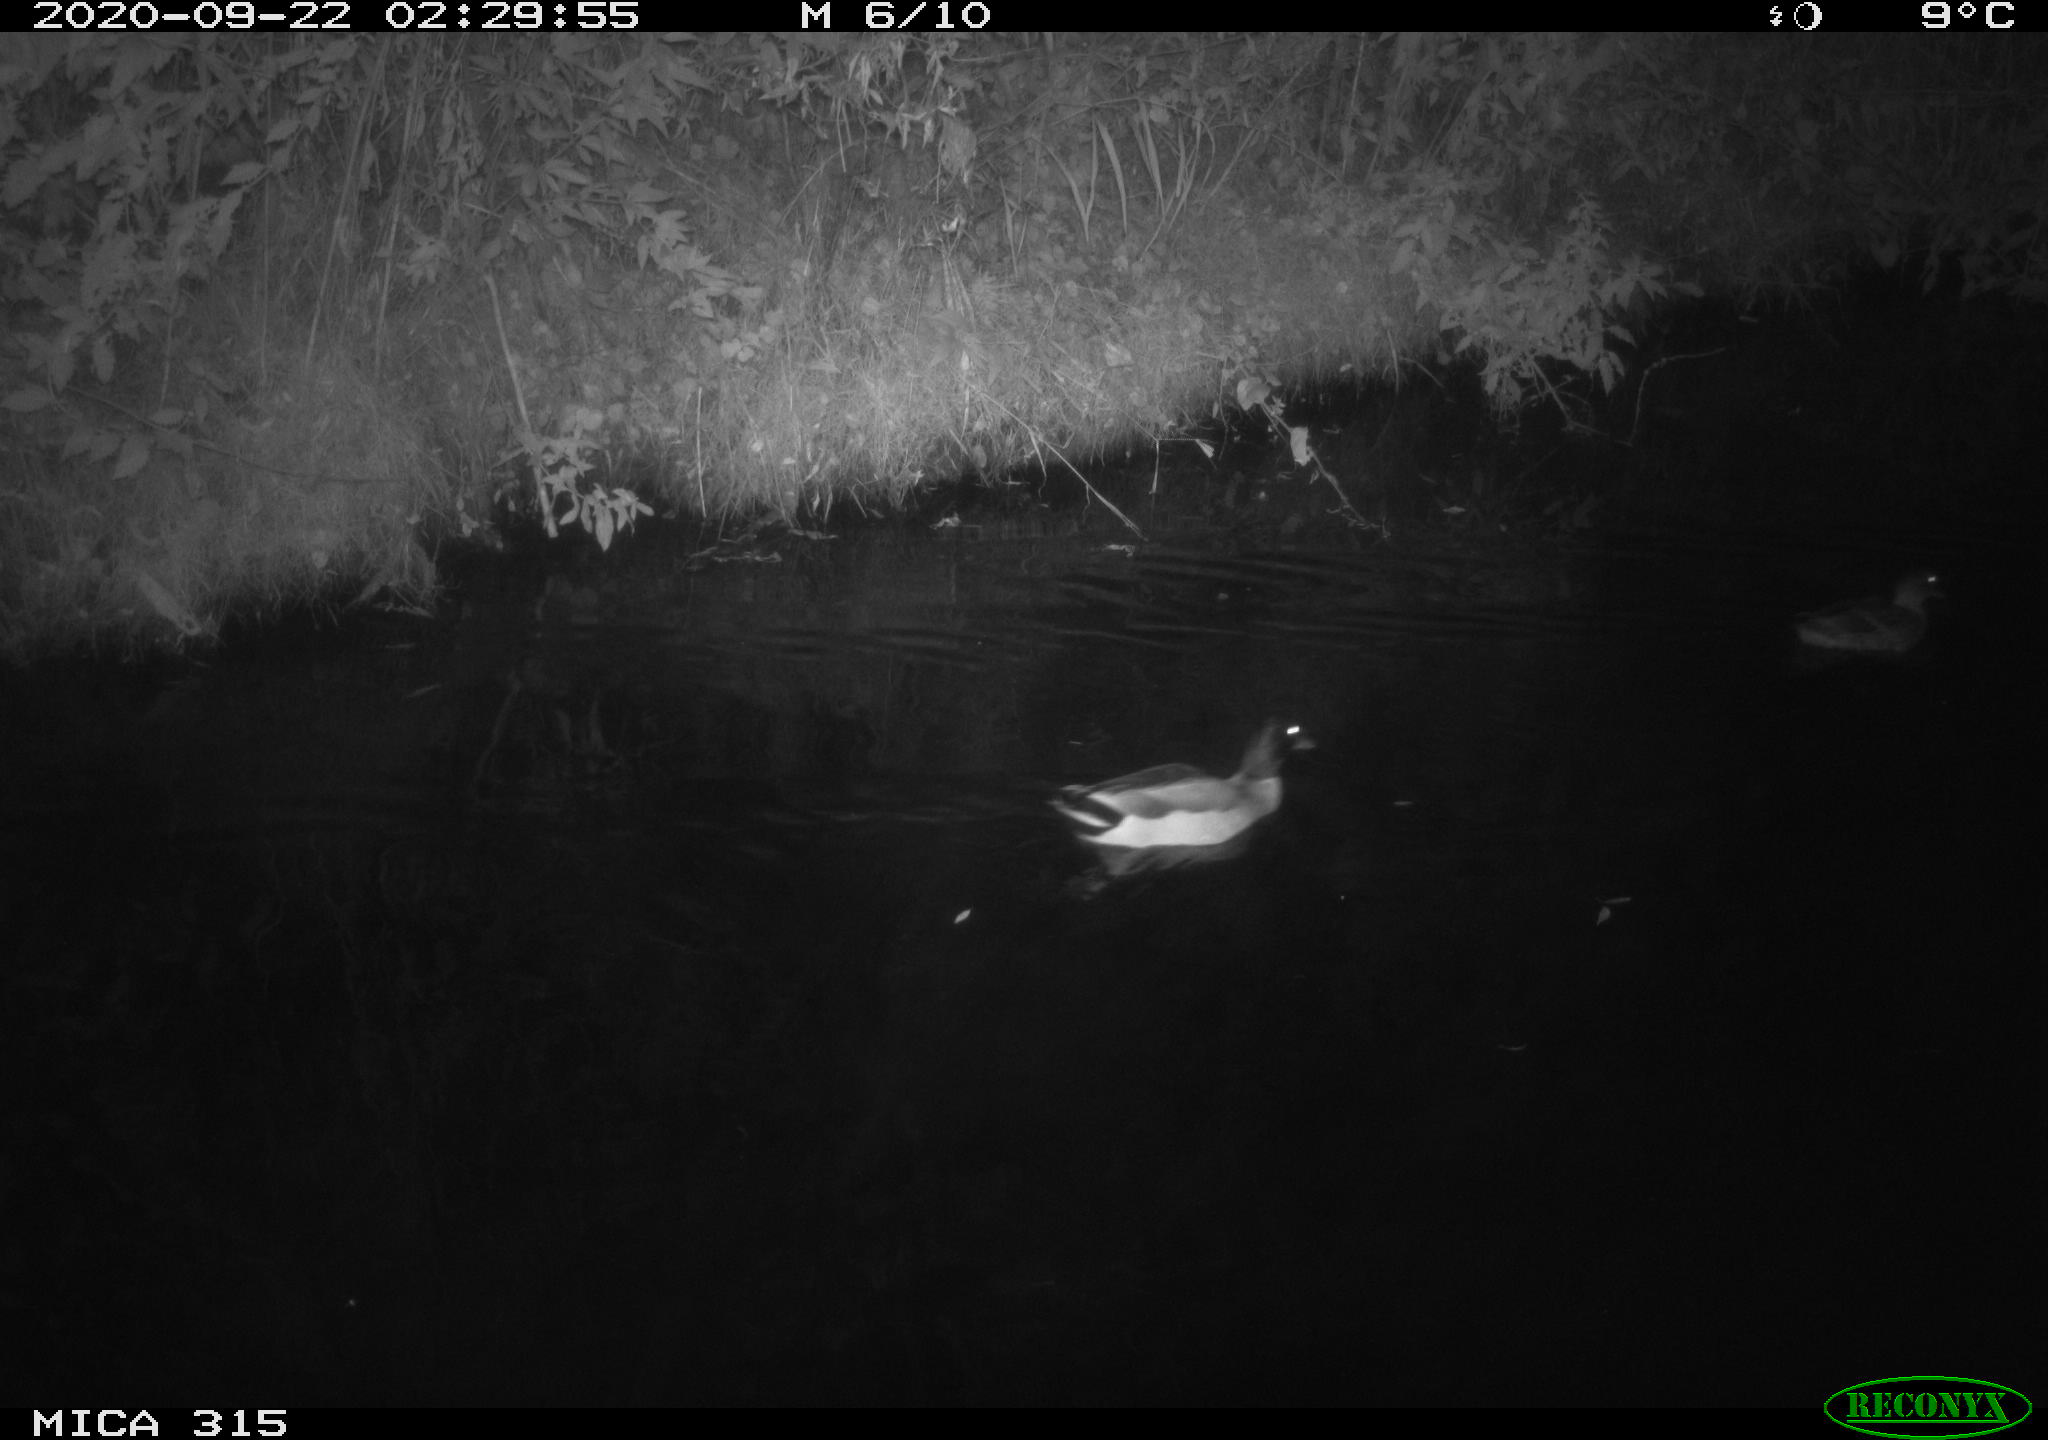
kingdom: Animalia
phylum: Chordata
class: Aves
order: Anseriformes
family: Anatidae
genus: Anas
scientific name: Anas platyrhynchos
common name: Mallard
